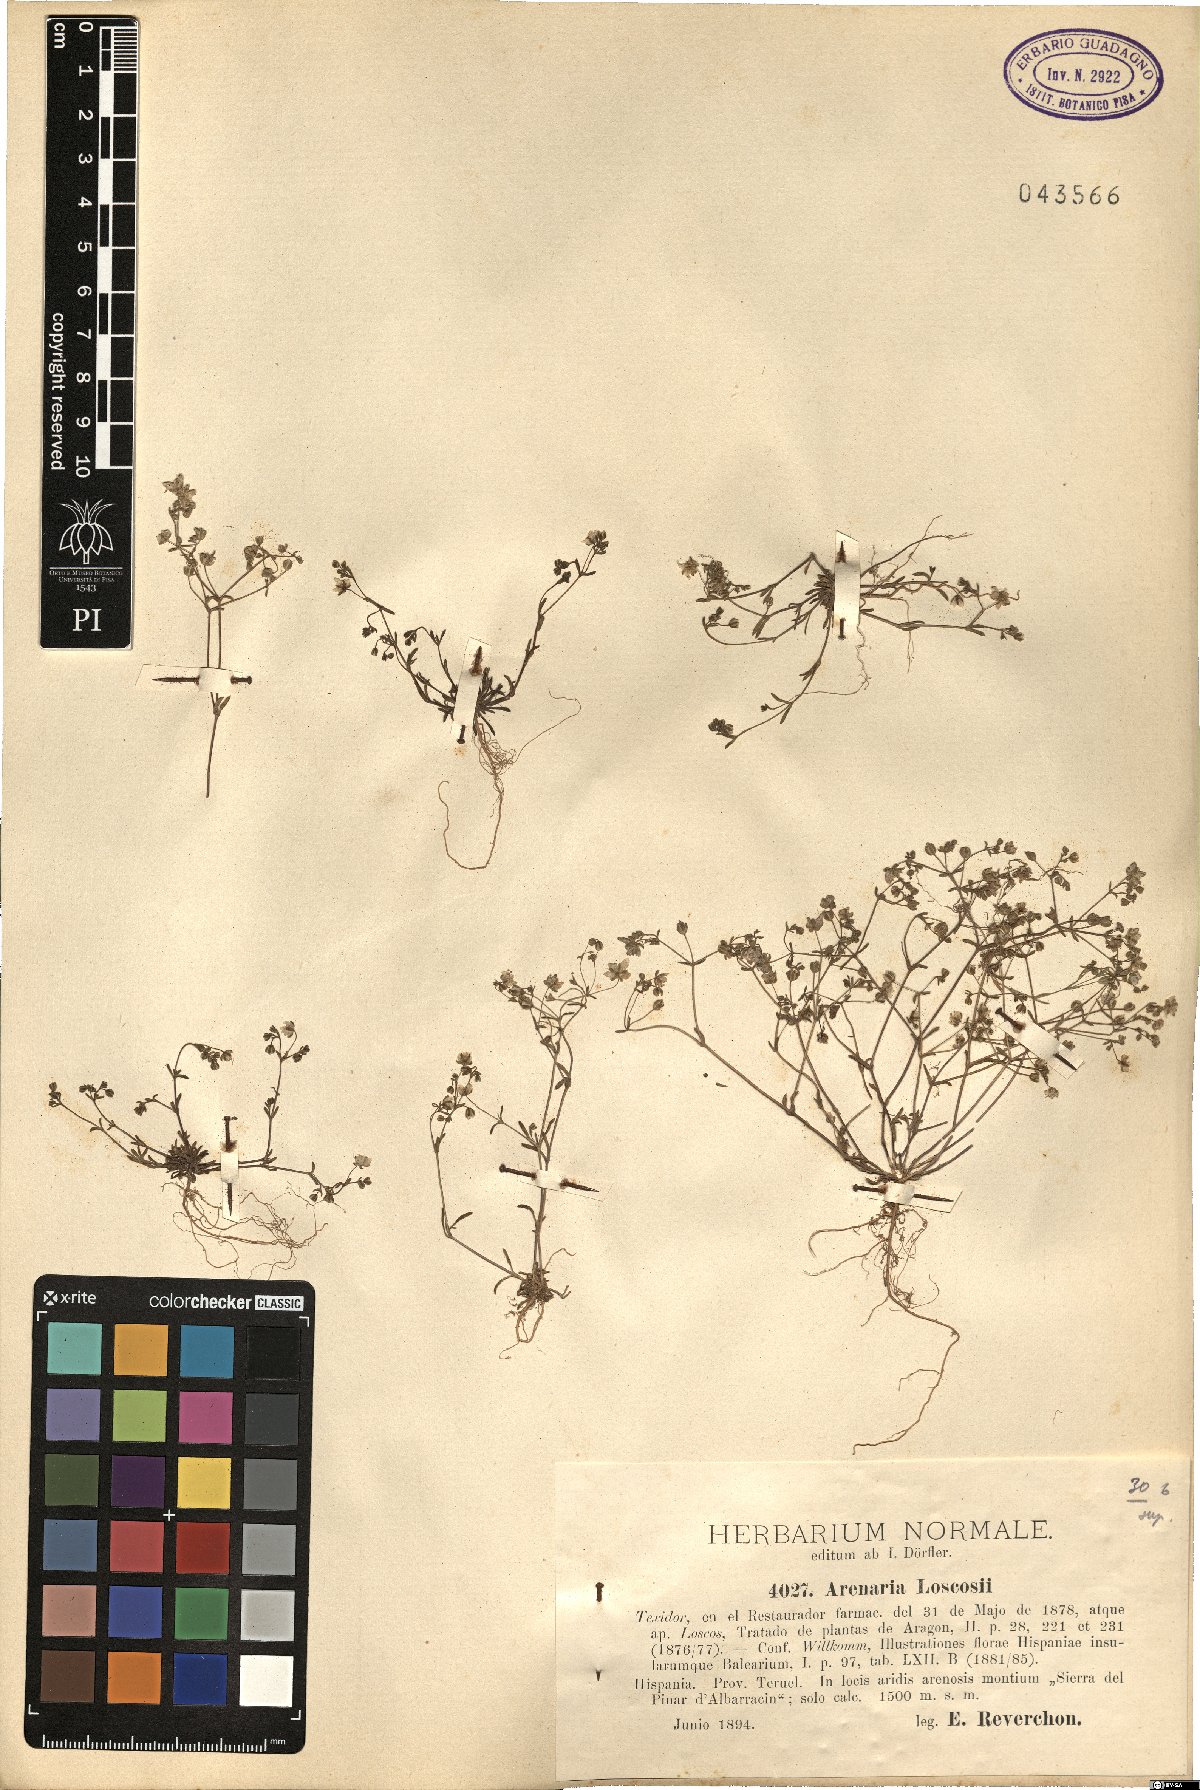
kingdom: Plantae
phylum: Tracheophyta
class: Magnoliopsida
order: Caryophyllales
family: Caryophyllaceae
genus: Arenaria
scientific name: Arenaria conimbricensis
